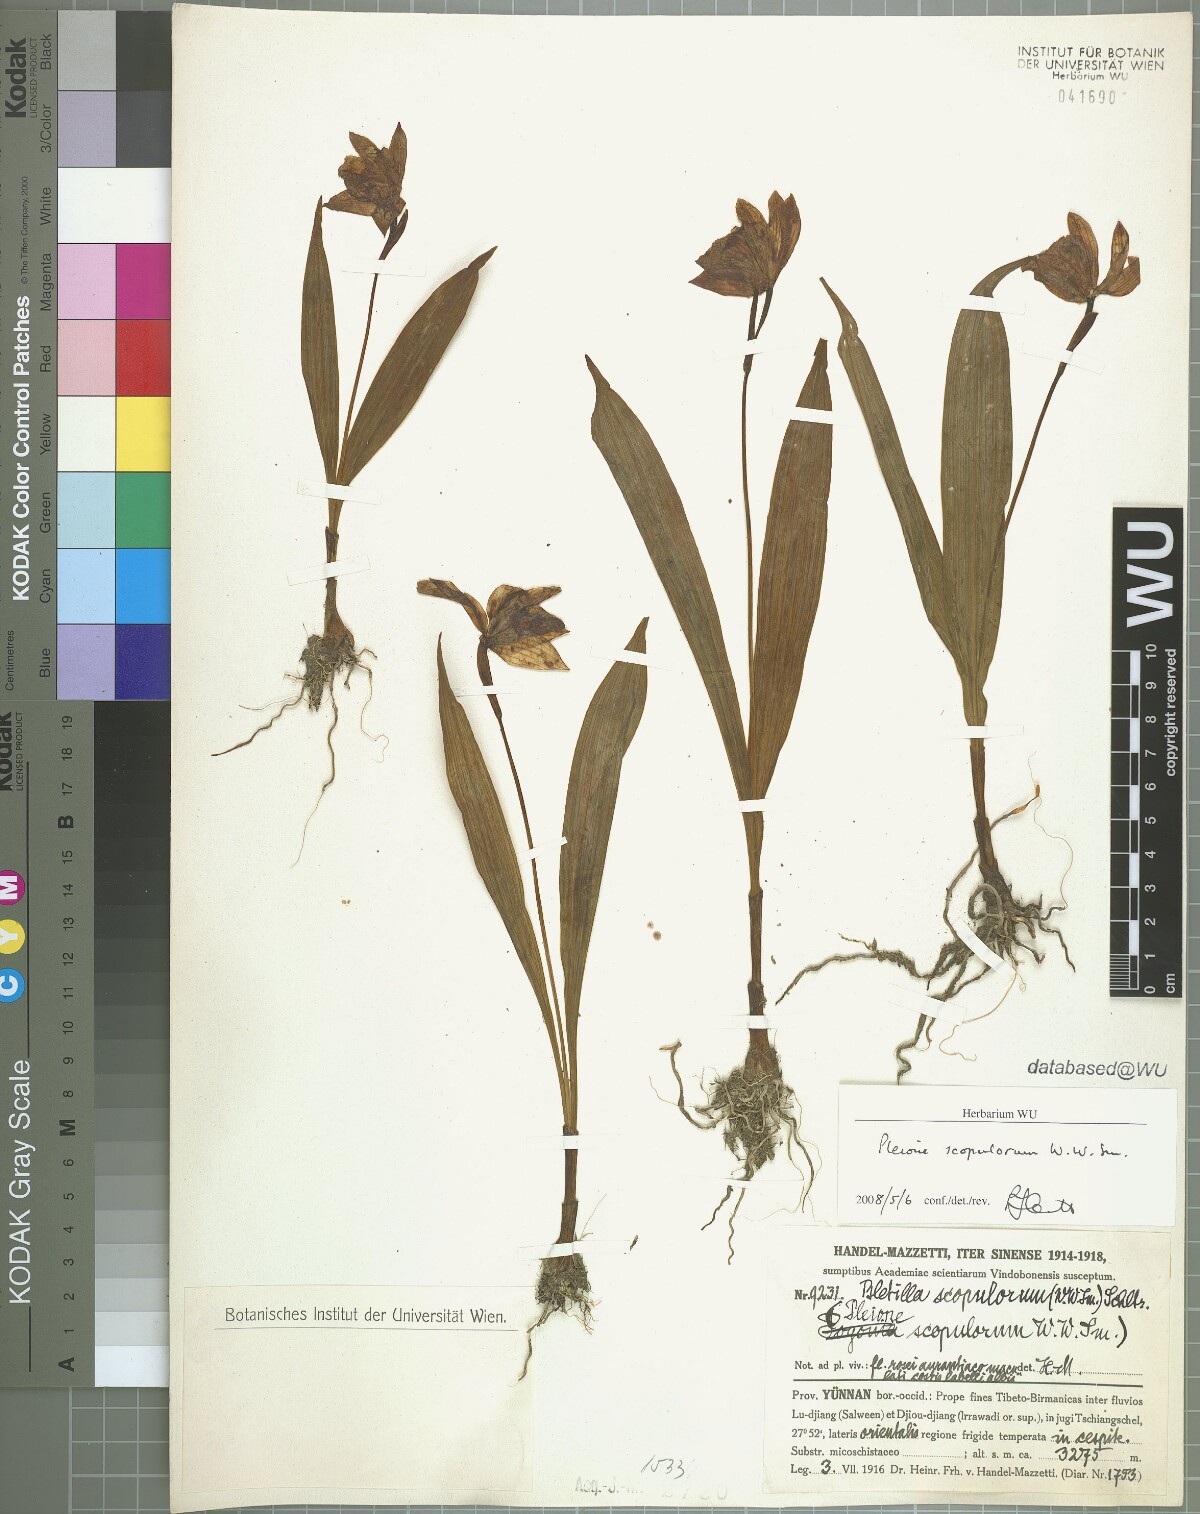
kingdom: Plantae
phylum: Tracheophyta
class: Liliopsida
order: Asparagales
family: Orchidaceae
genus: Pleione
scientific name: Pleione scopulorum
